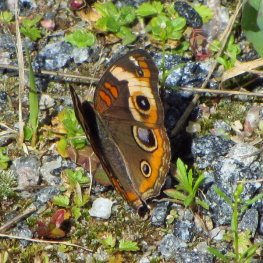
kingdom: Animalia
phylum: Arthropoda
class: Insecta
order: Lepidoptera
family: Nymphalidae
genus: Junonia
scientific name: Junonia coenia
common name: Common Buckeye
